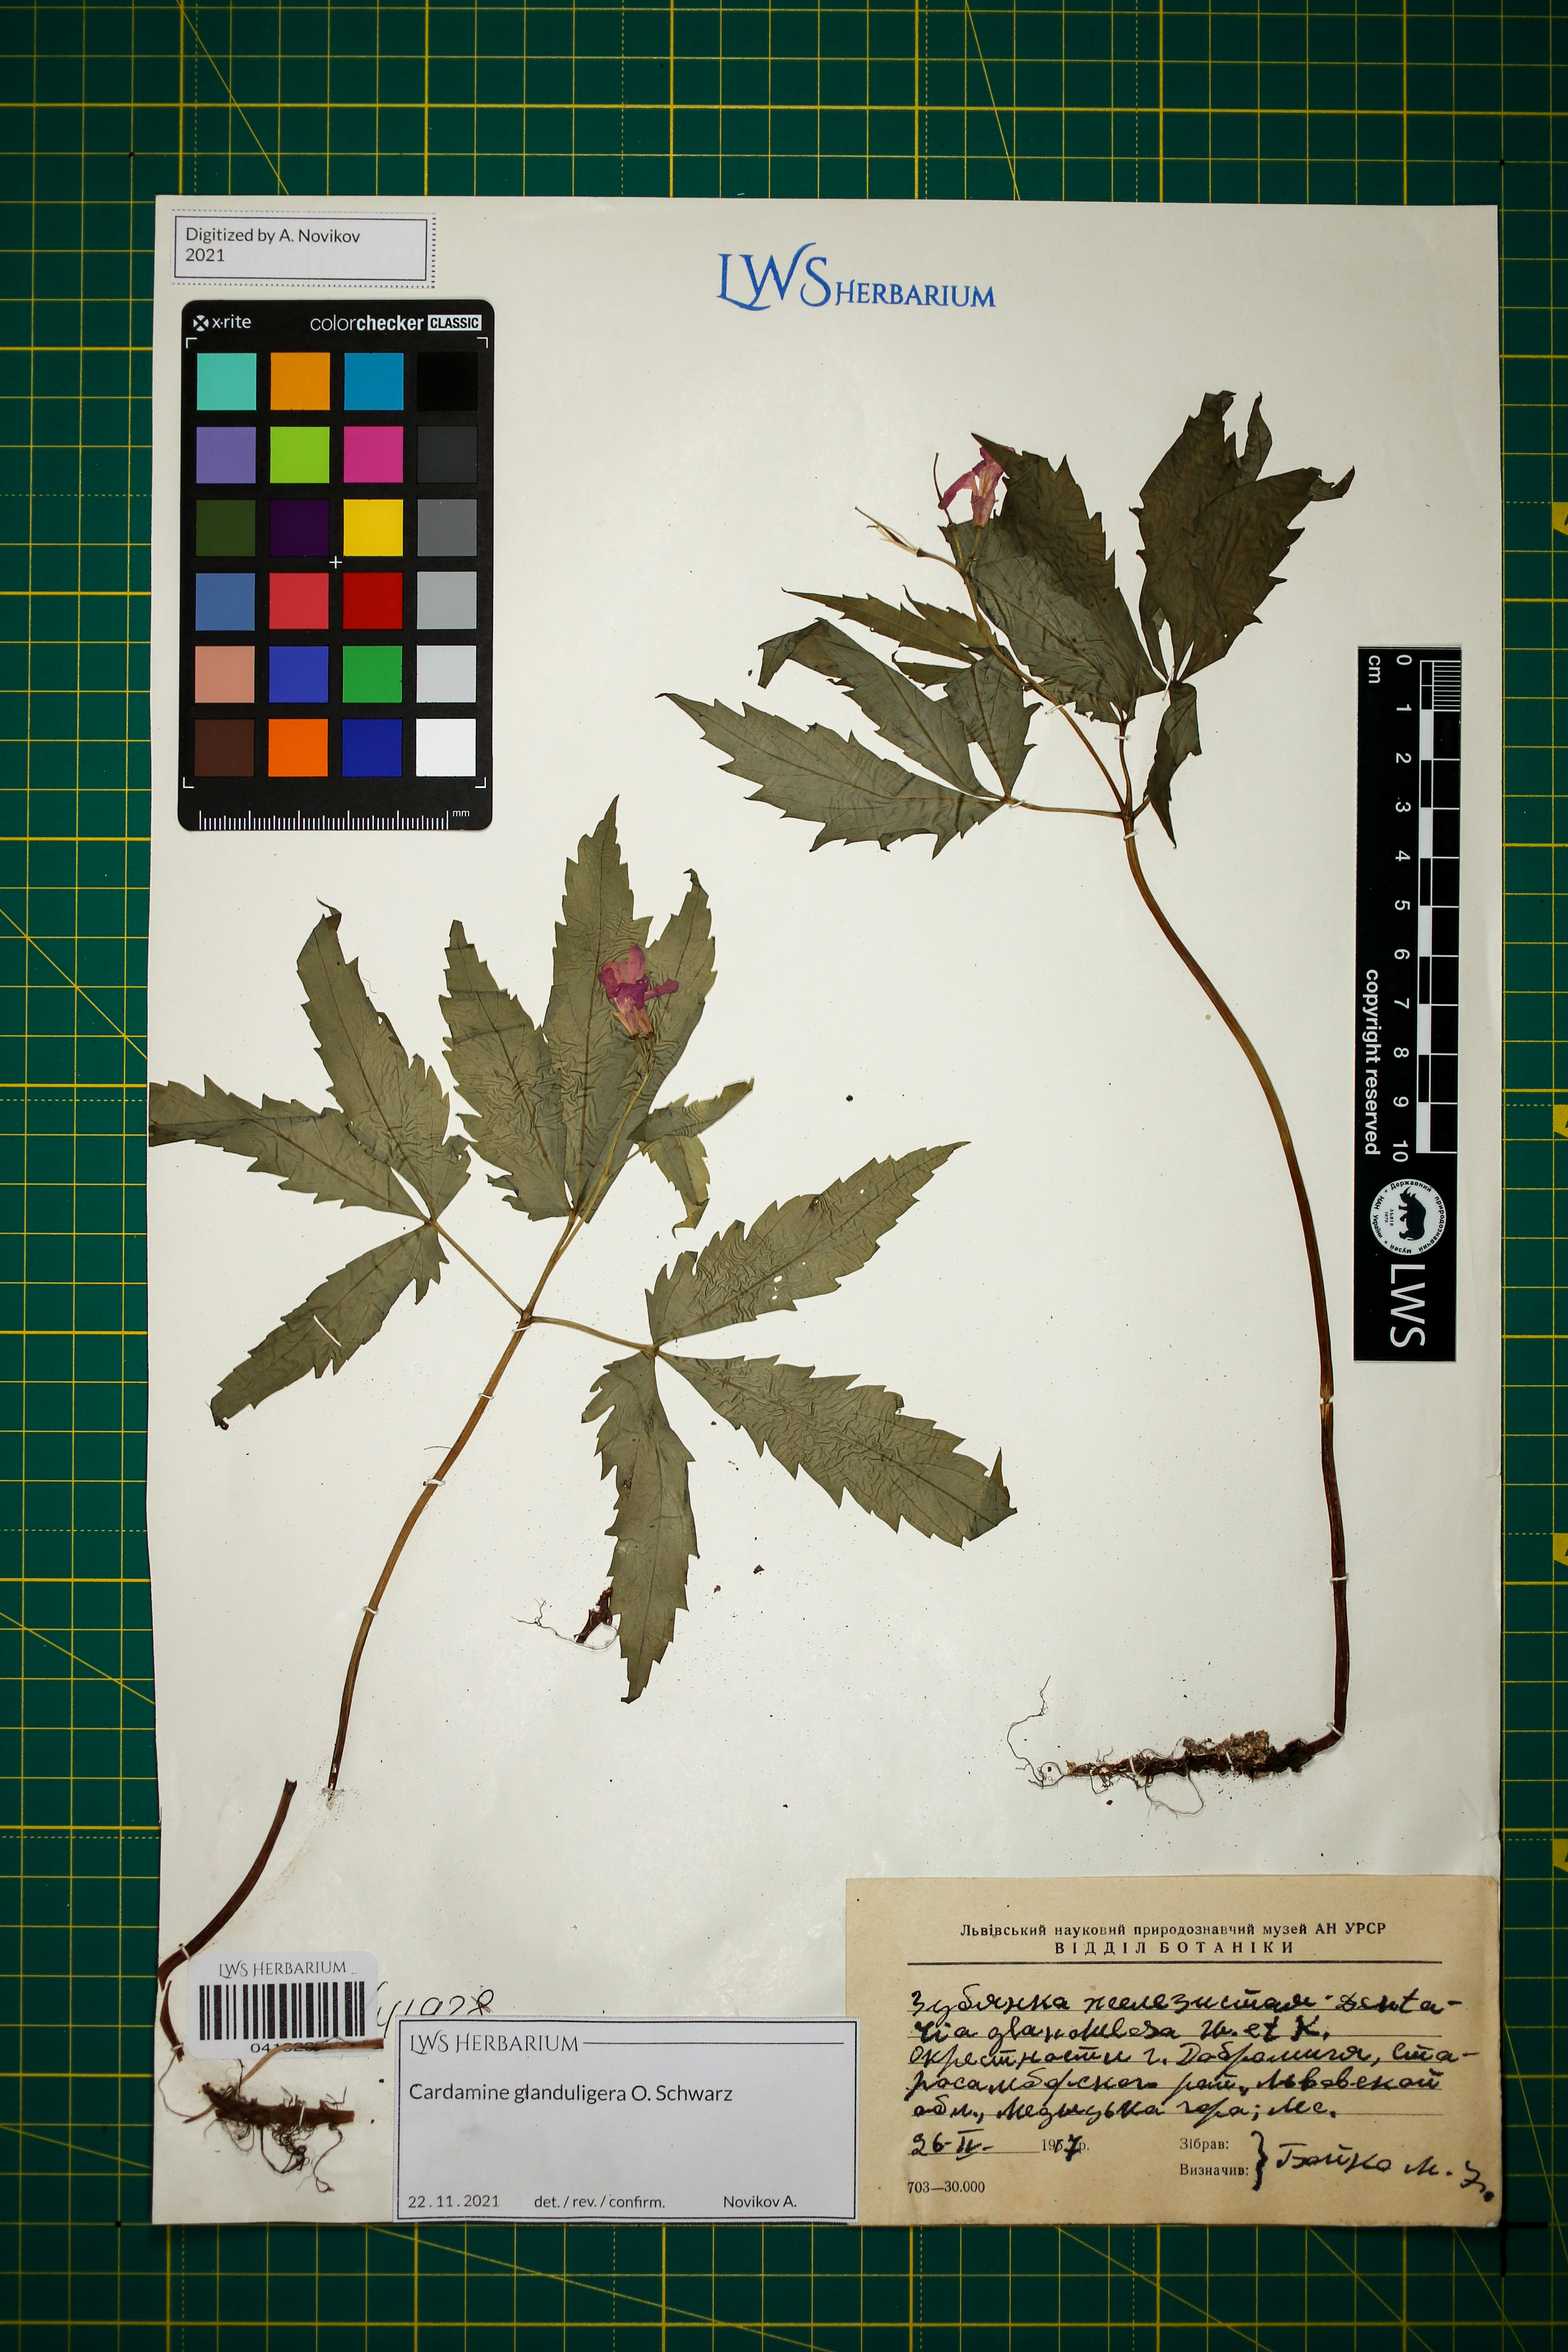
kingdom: Plantae
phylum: Tracheophyta
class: Magnoliopsida
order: Brassicales
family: Brassicaceae
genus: Cardamine
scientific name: Cardamine glanduligera
